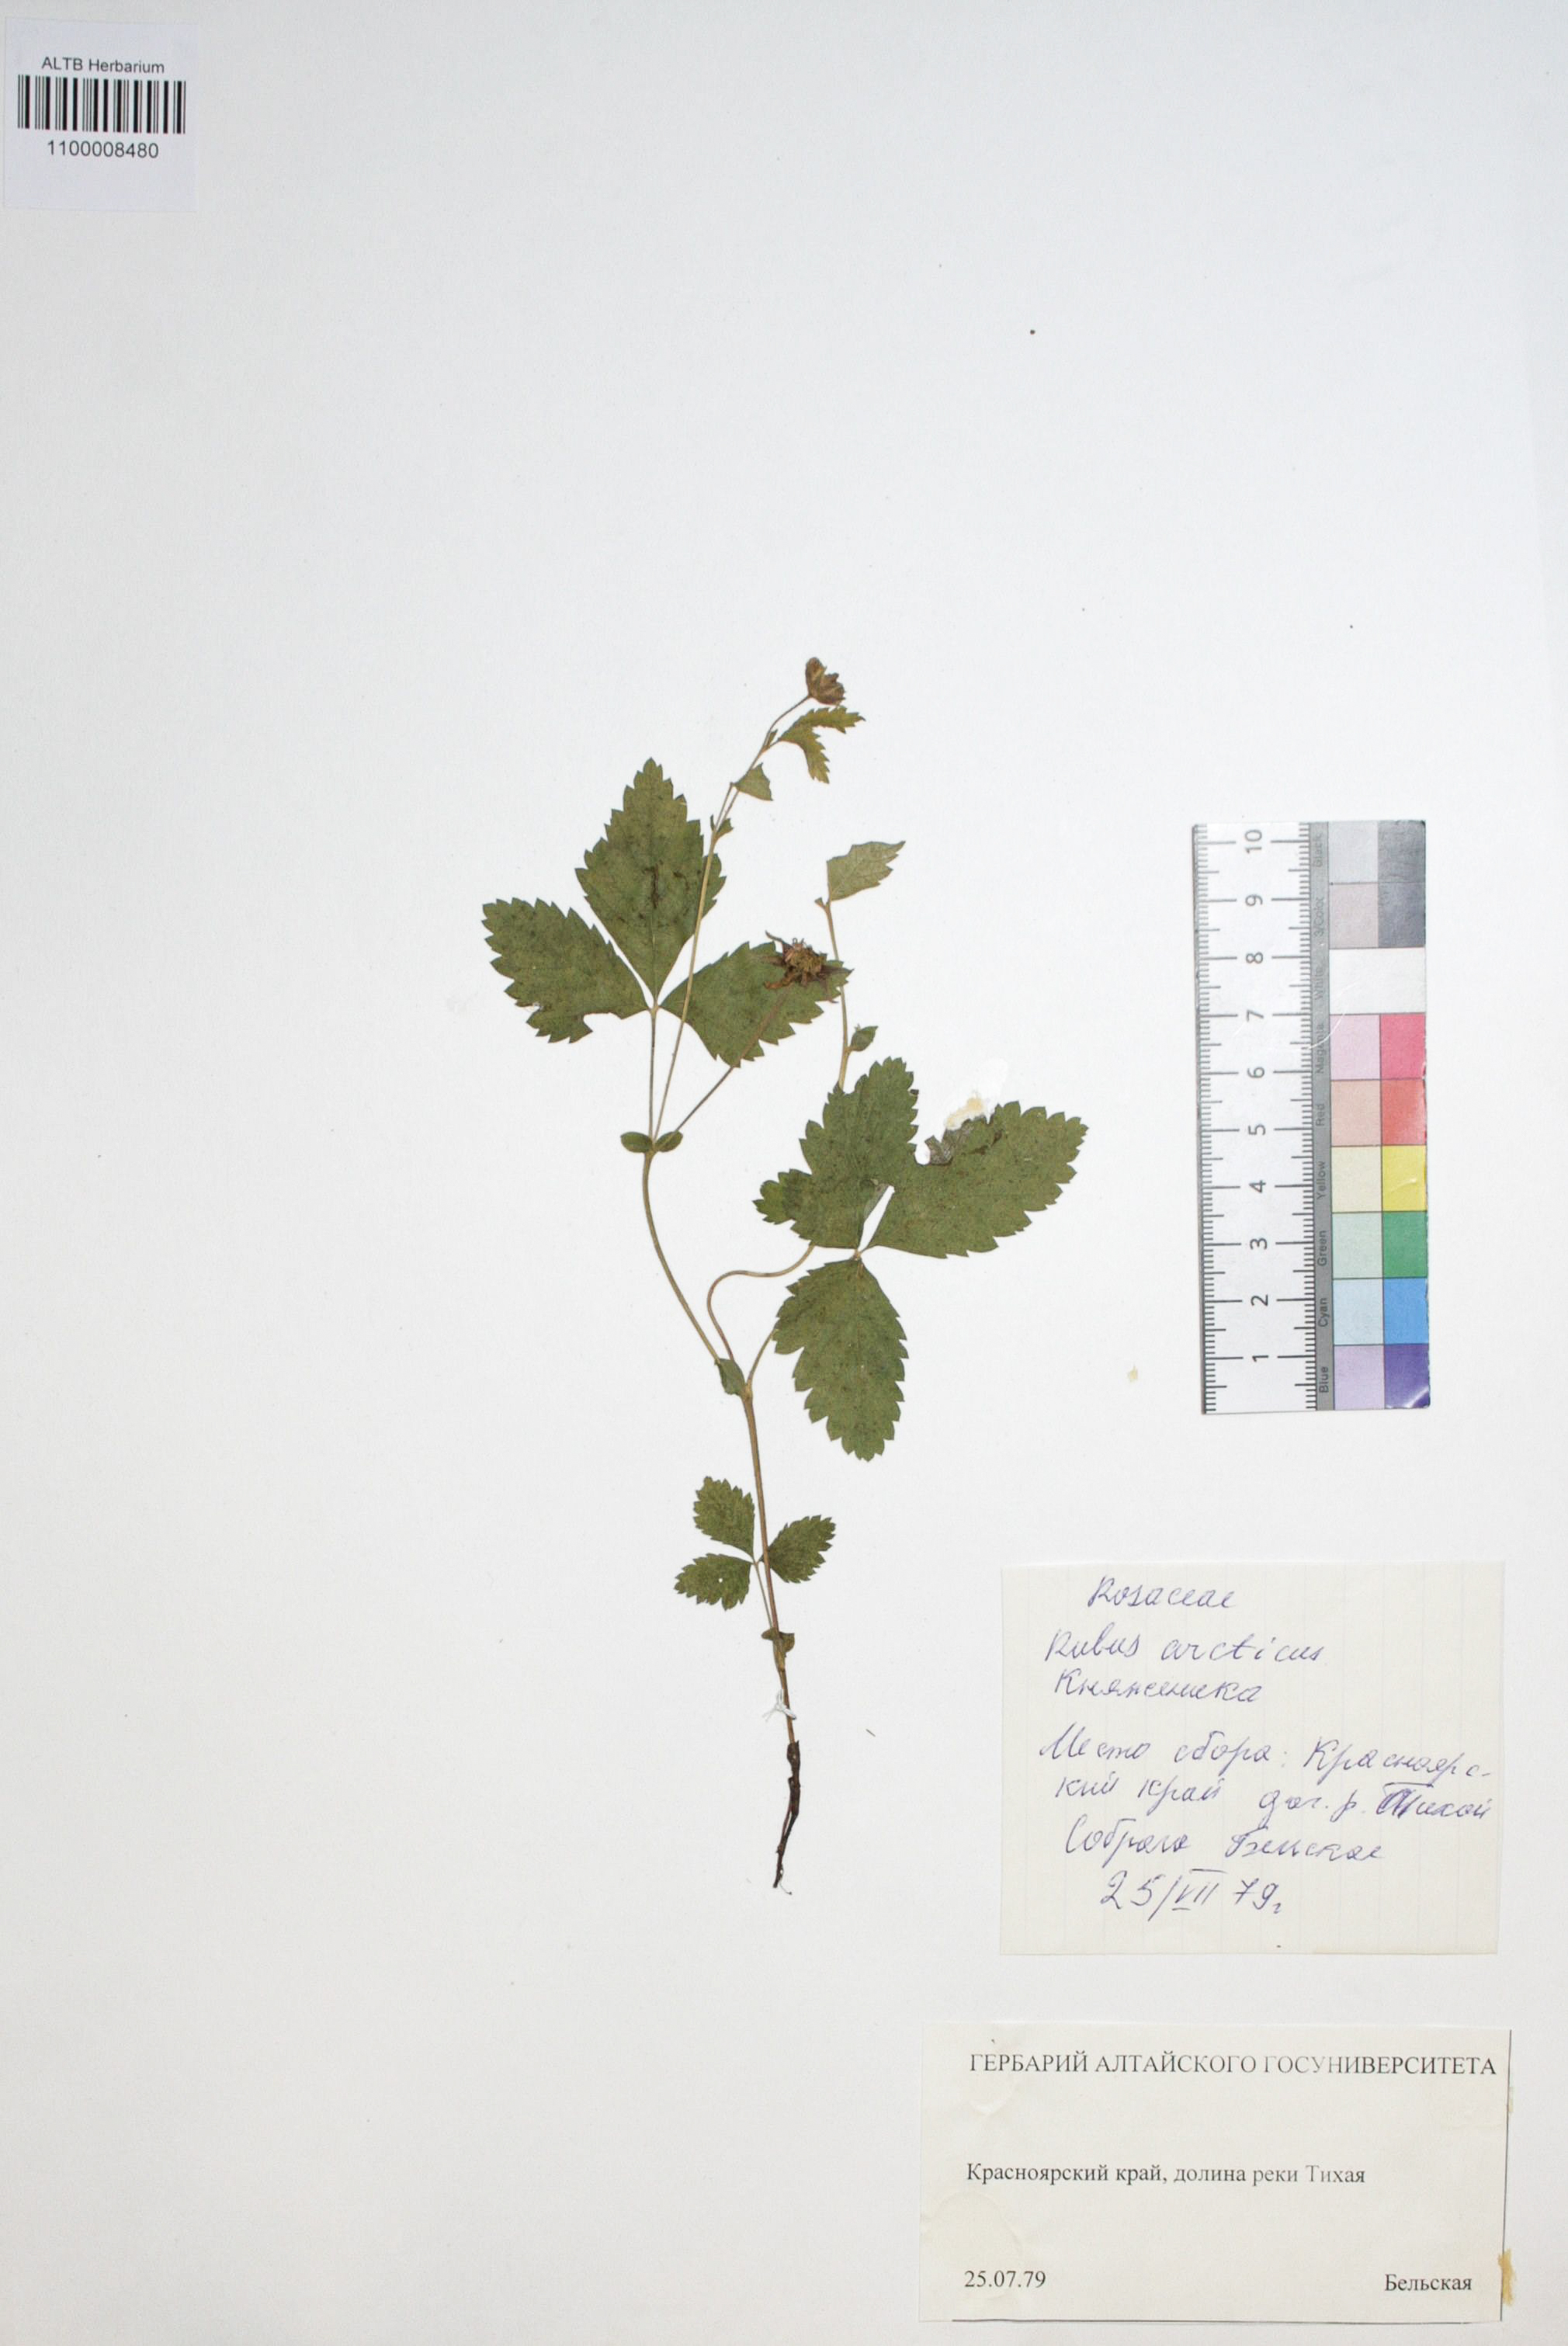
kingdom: Plantae
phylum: Tracheophyta
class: Magnoliopsida
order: Rosales
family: Rosaceae
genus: Rubus
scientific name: Rubus arcticus
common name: Arctic bramble
